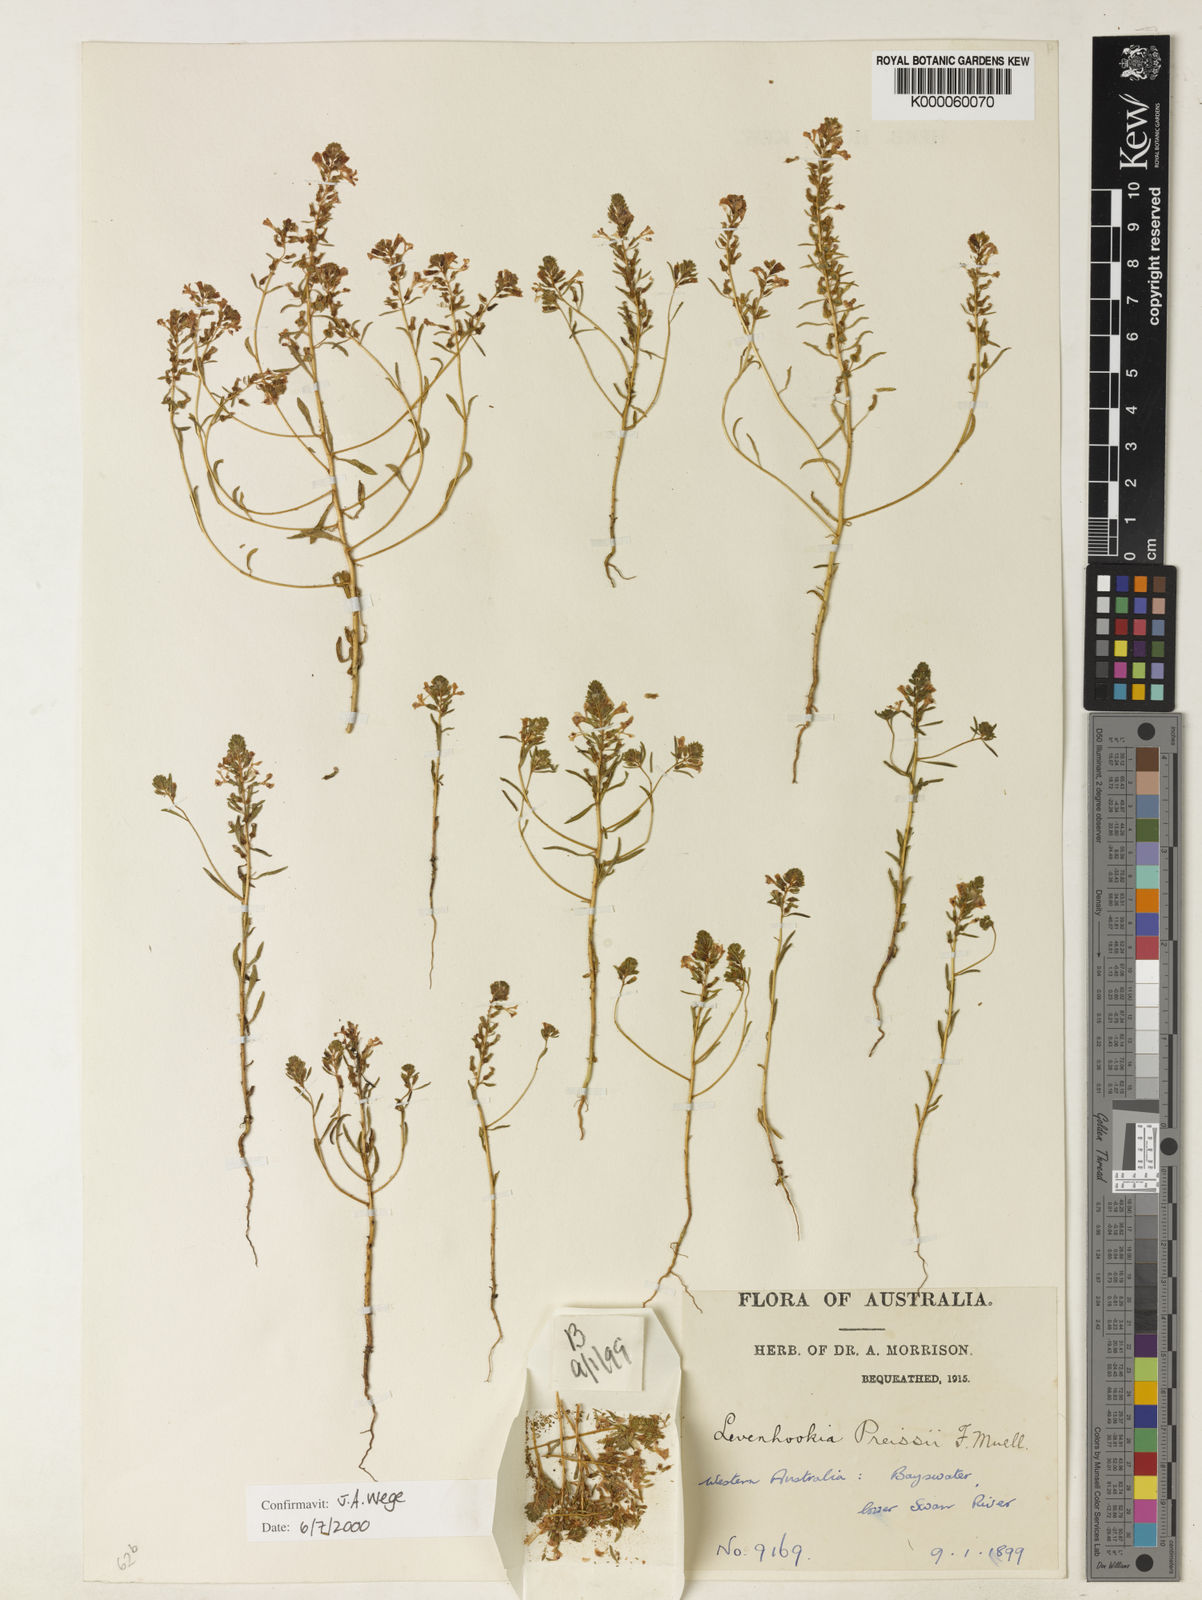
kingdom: Plantae
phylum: Tracheophyta
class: Magnoliopsida
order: Asterales
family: Stylidiaceae
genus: Levenhookia
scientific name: Levenhookia preissii
